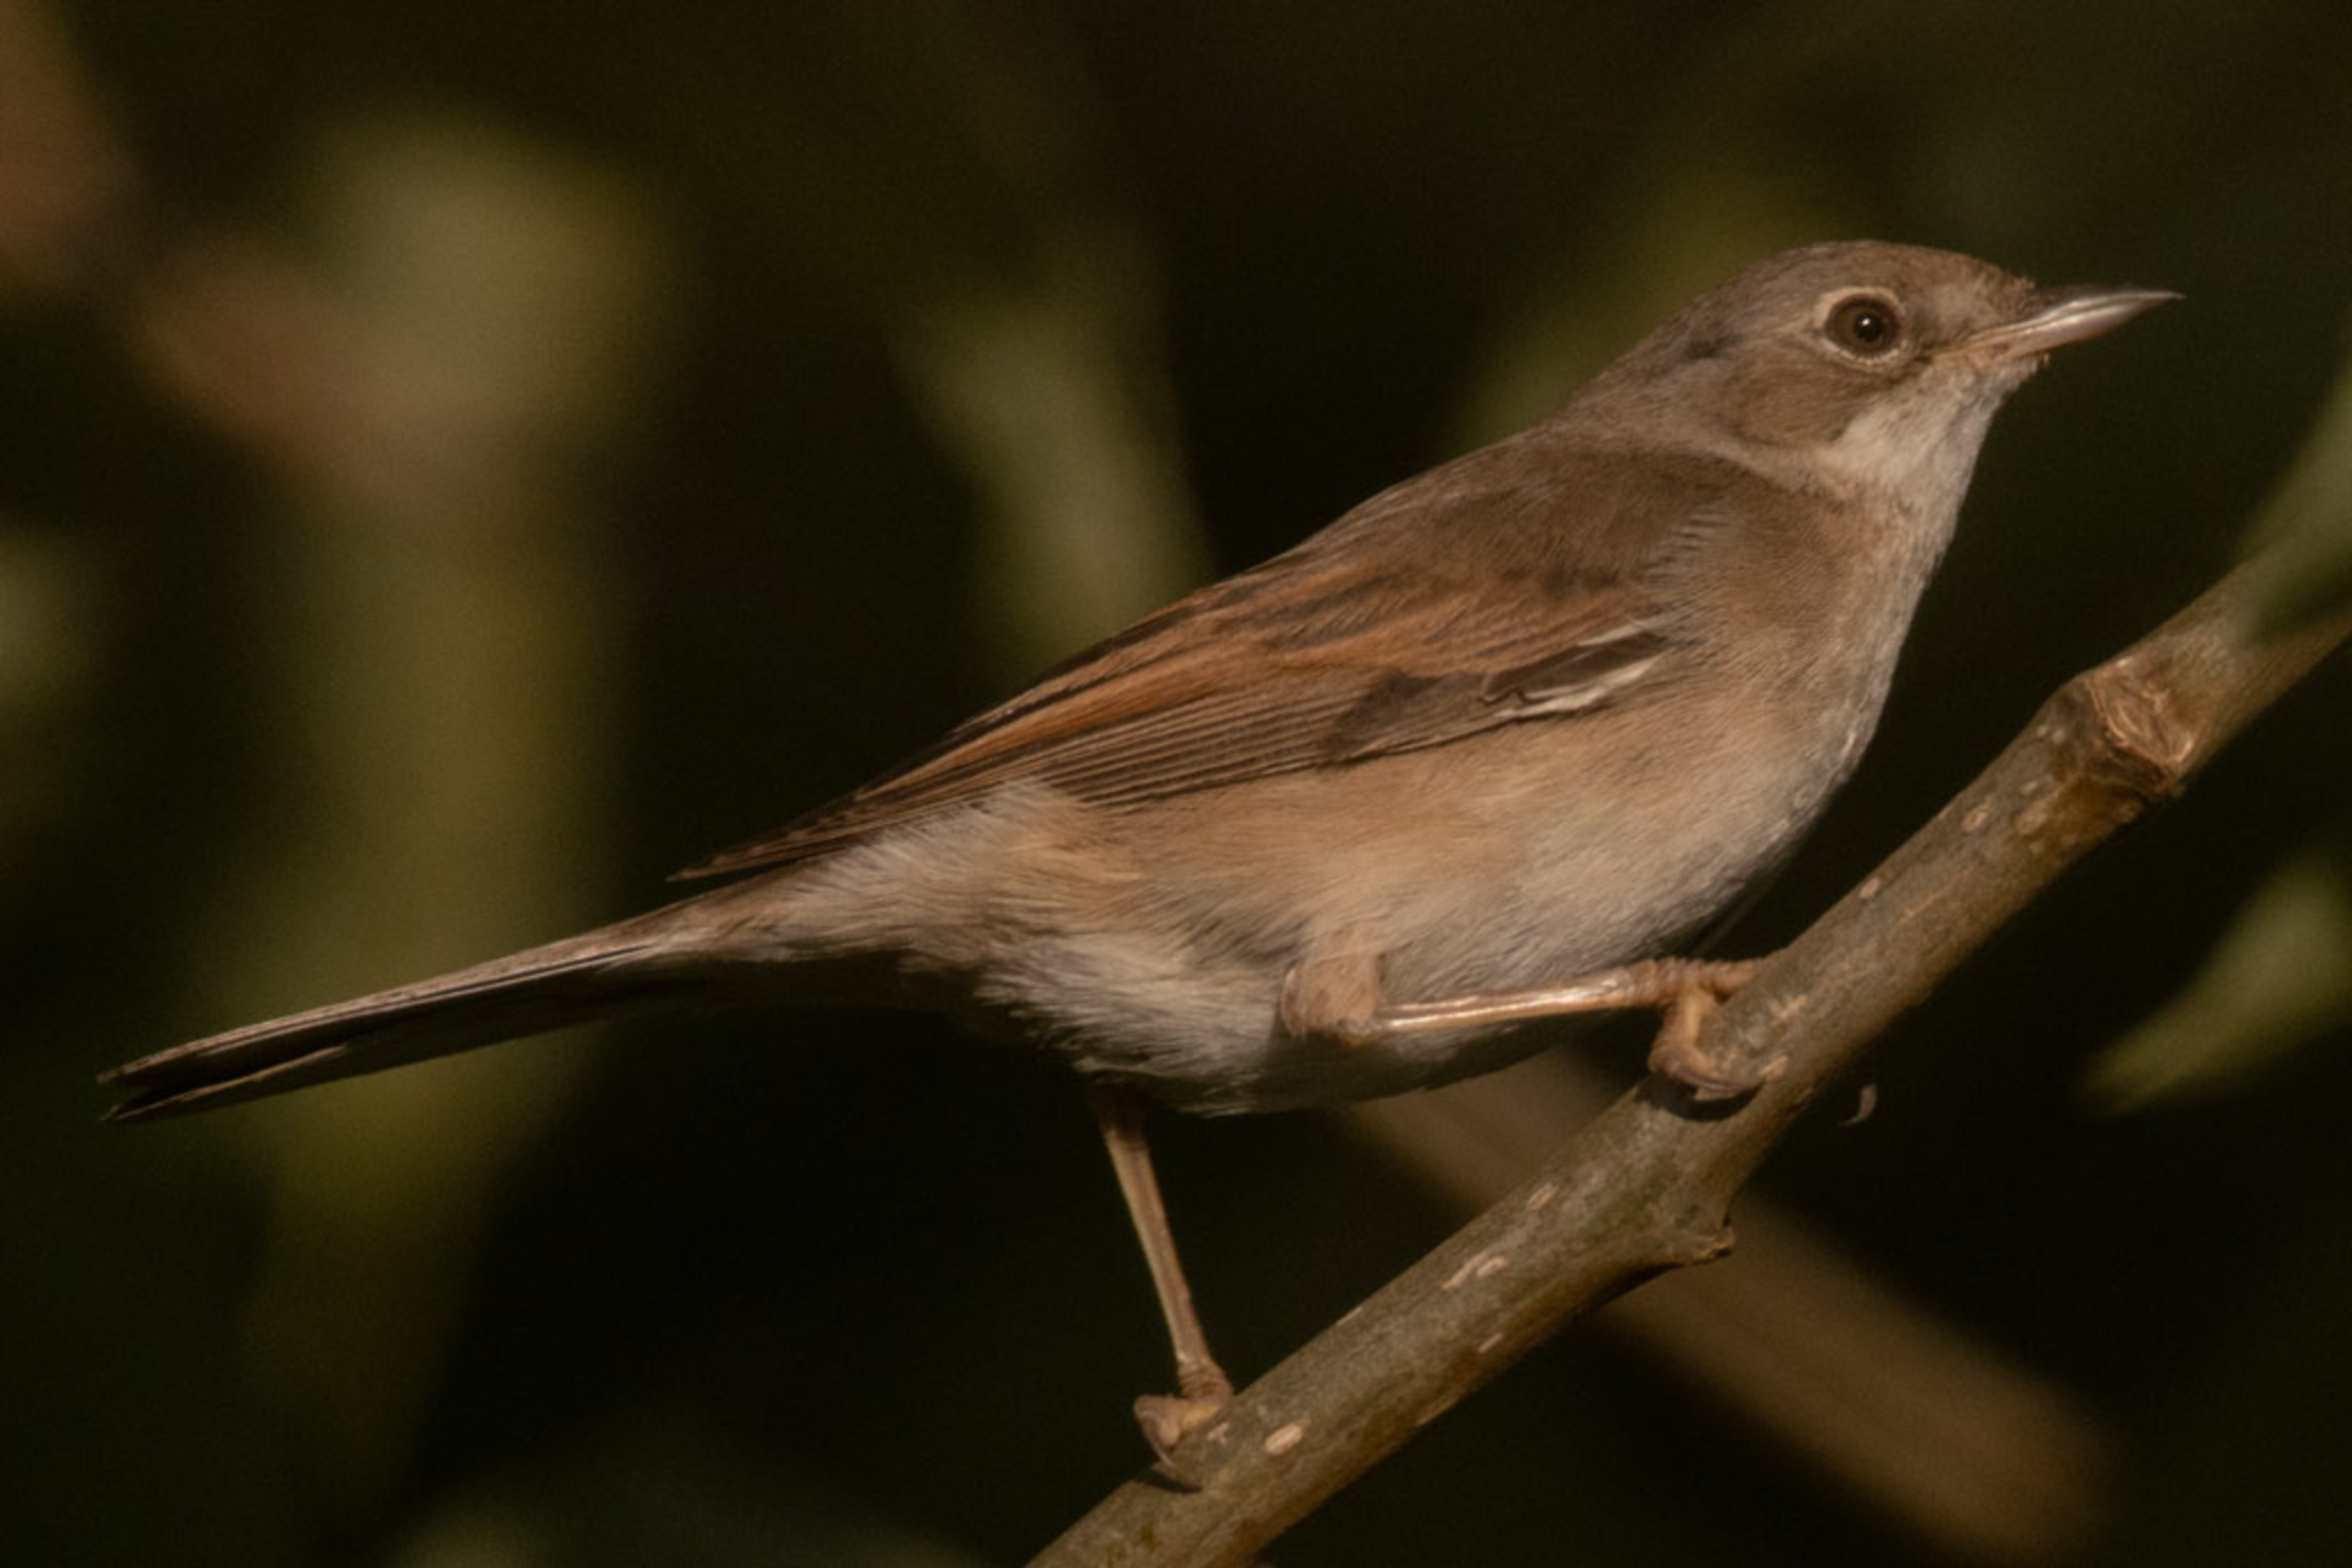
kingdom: Animalia
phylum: Chordata
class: Aves
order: Passeriformes
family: Sylviidae
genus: Sylvia
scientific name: Sylvia communis
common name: Tornsanger
